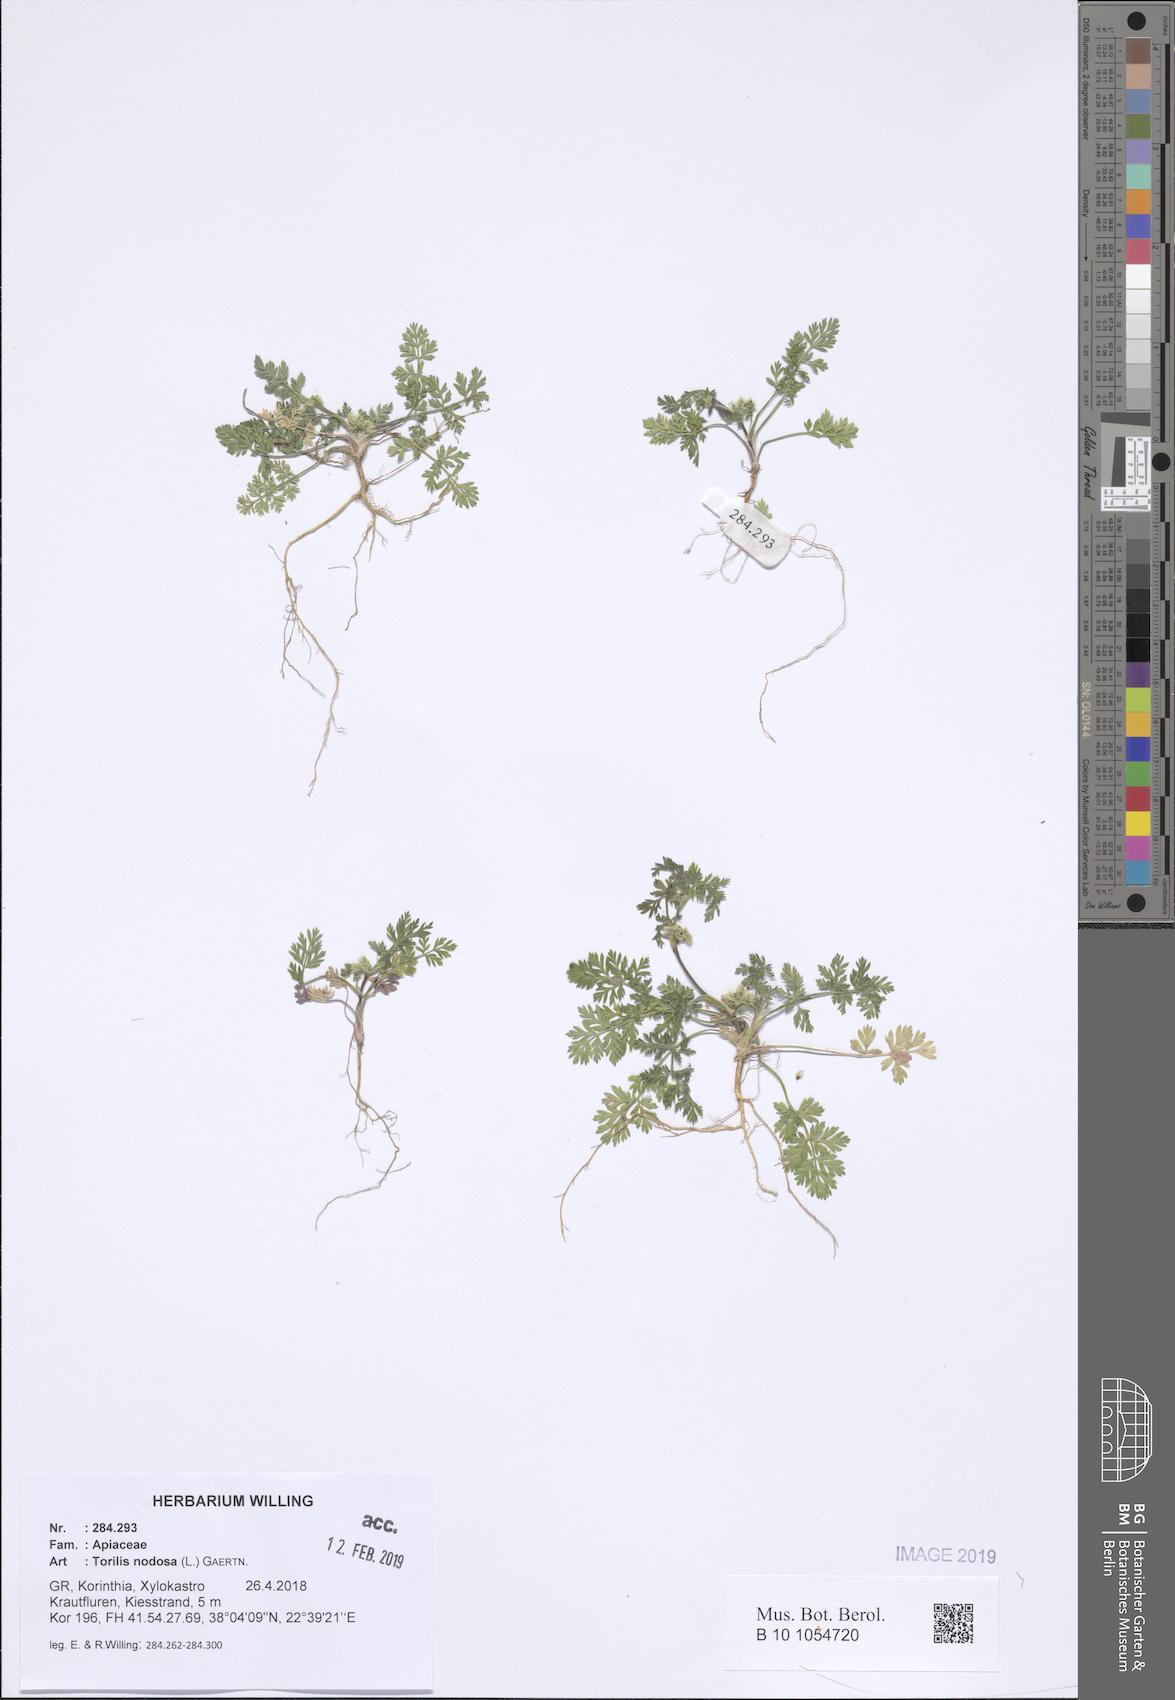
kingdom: Plantae
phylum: Tracheophyta
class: Magnoliopsida
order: Apiales
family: Apiaceae
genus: Torilis
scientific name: Torilis nodosa
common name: Knotted hedge-parsley
